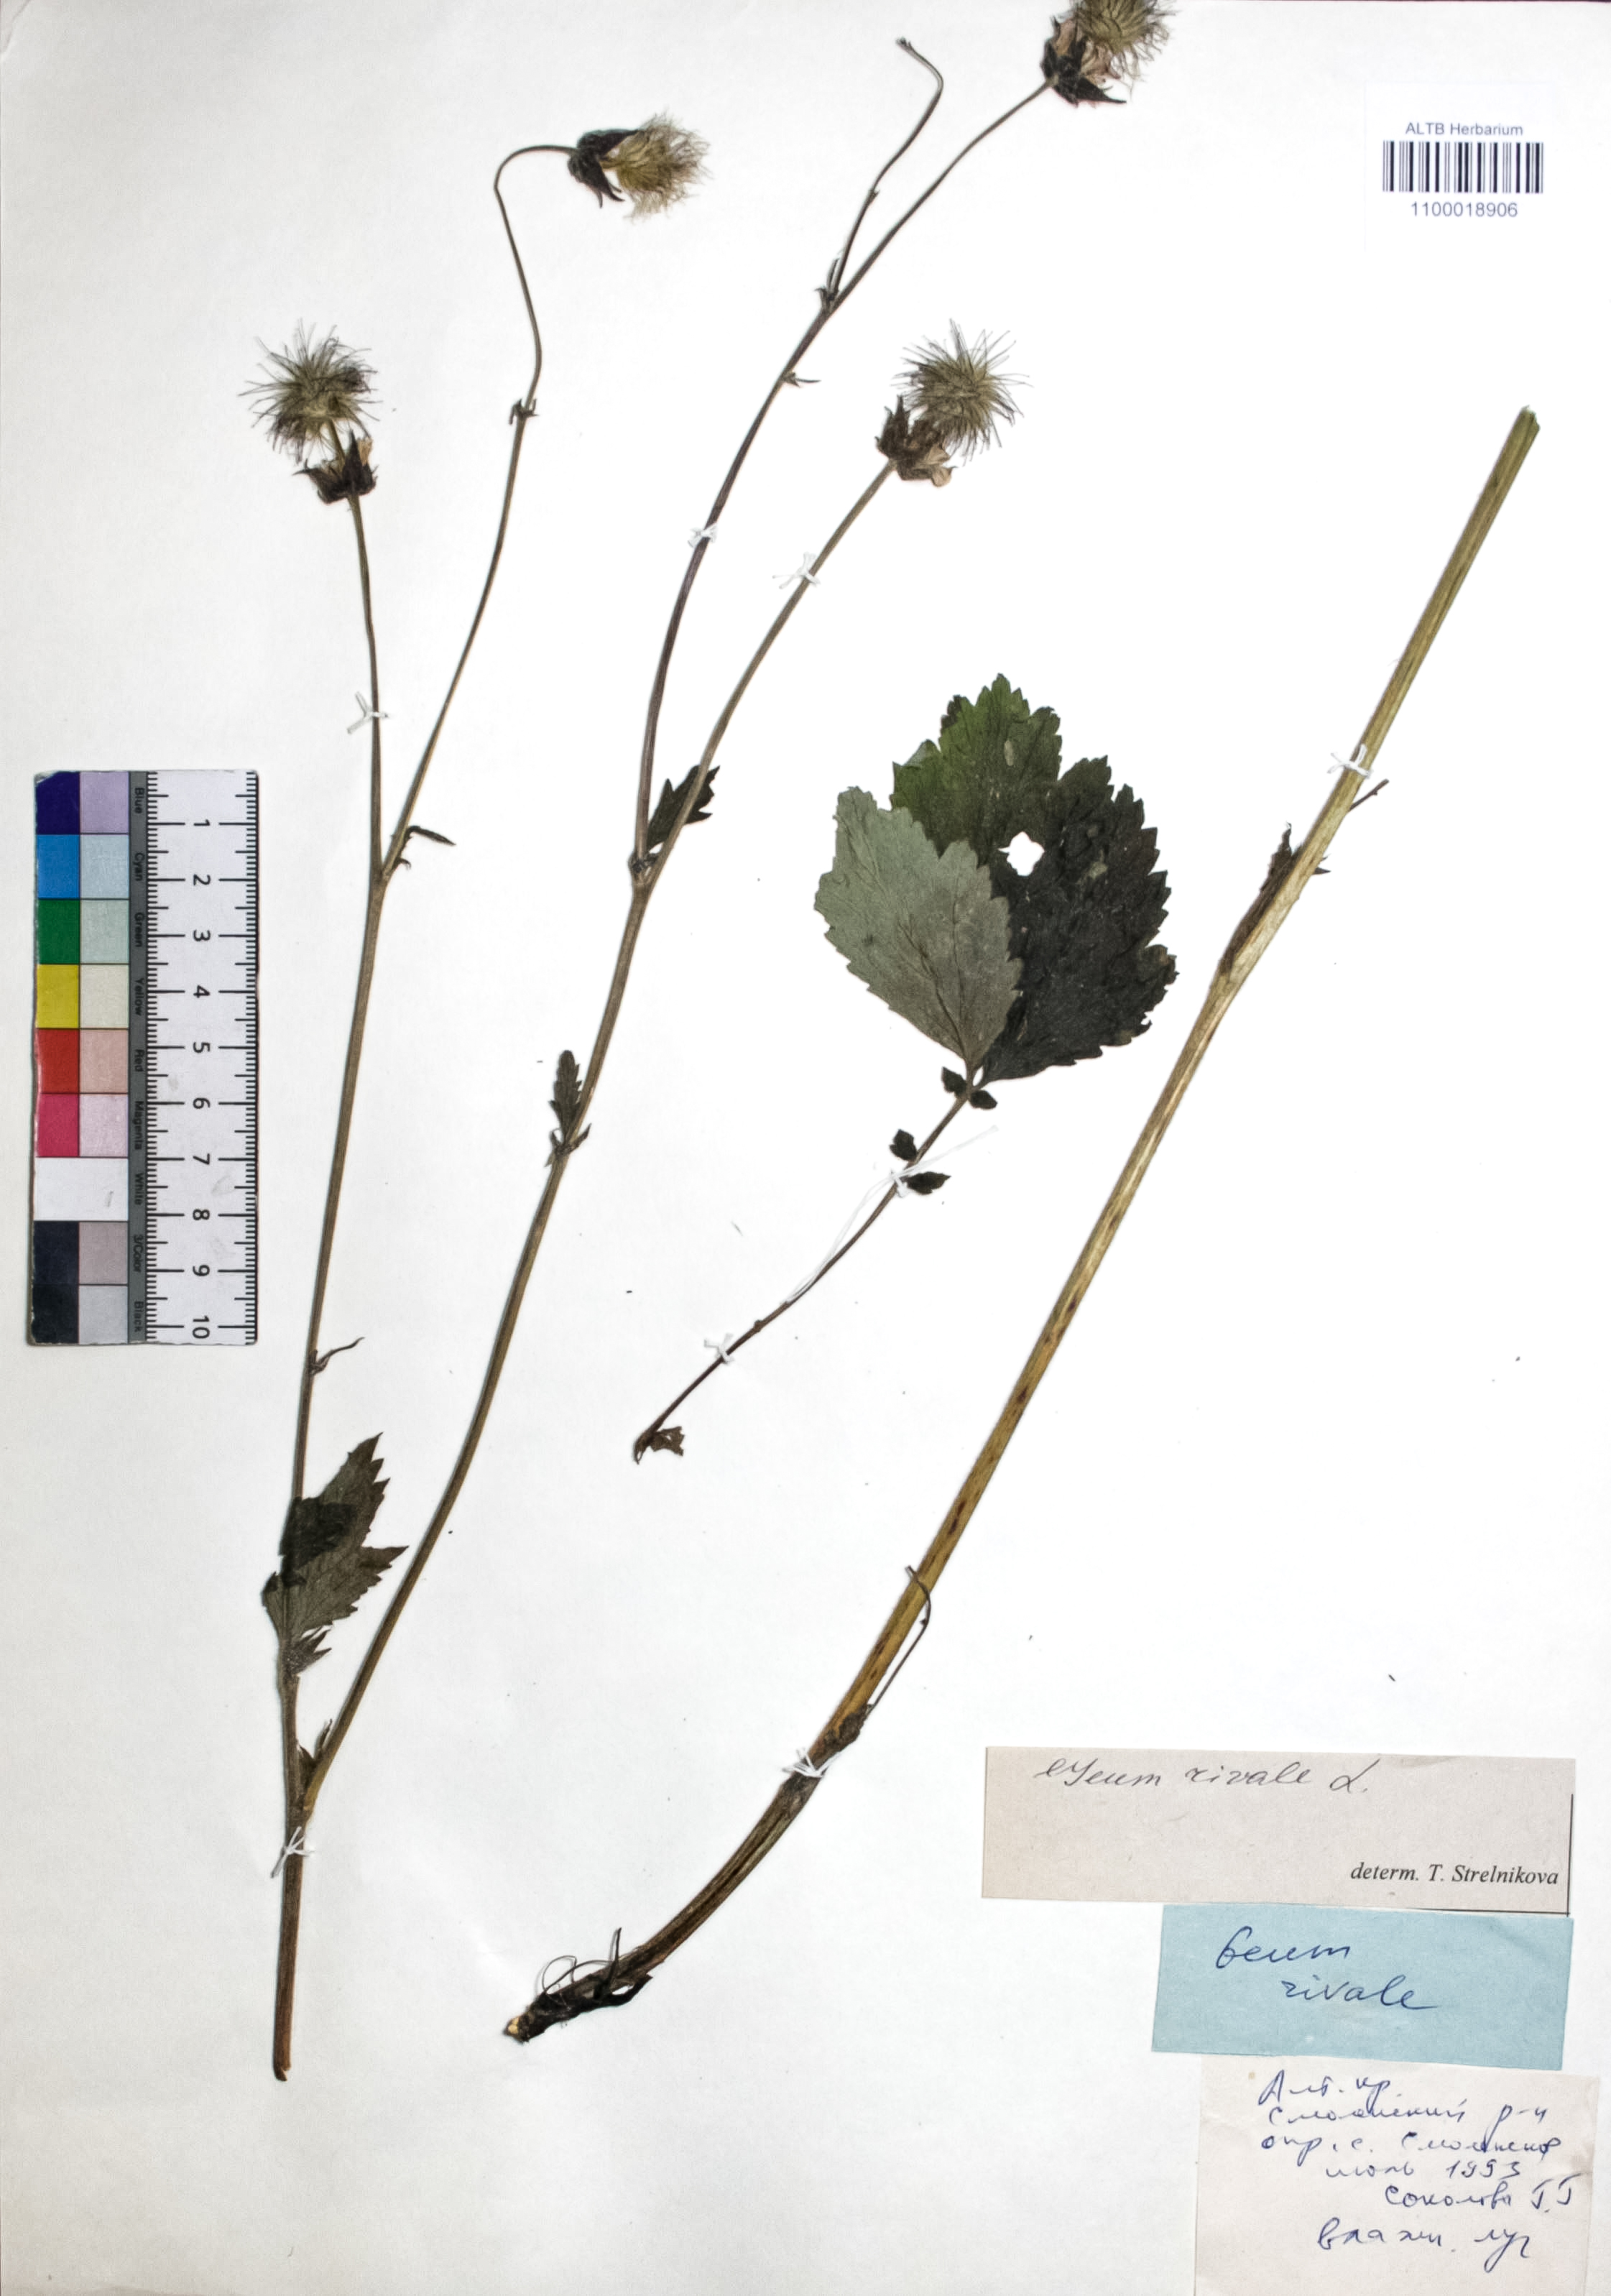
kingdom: Plantae
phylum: Tracheophyta
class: Magnoliopsida
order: Rosales
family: Rosaceae
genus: Geum
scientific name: Geum rivale
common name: Water avens
